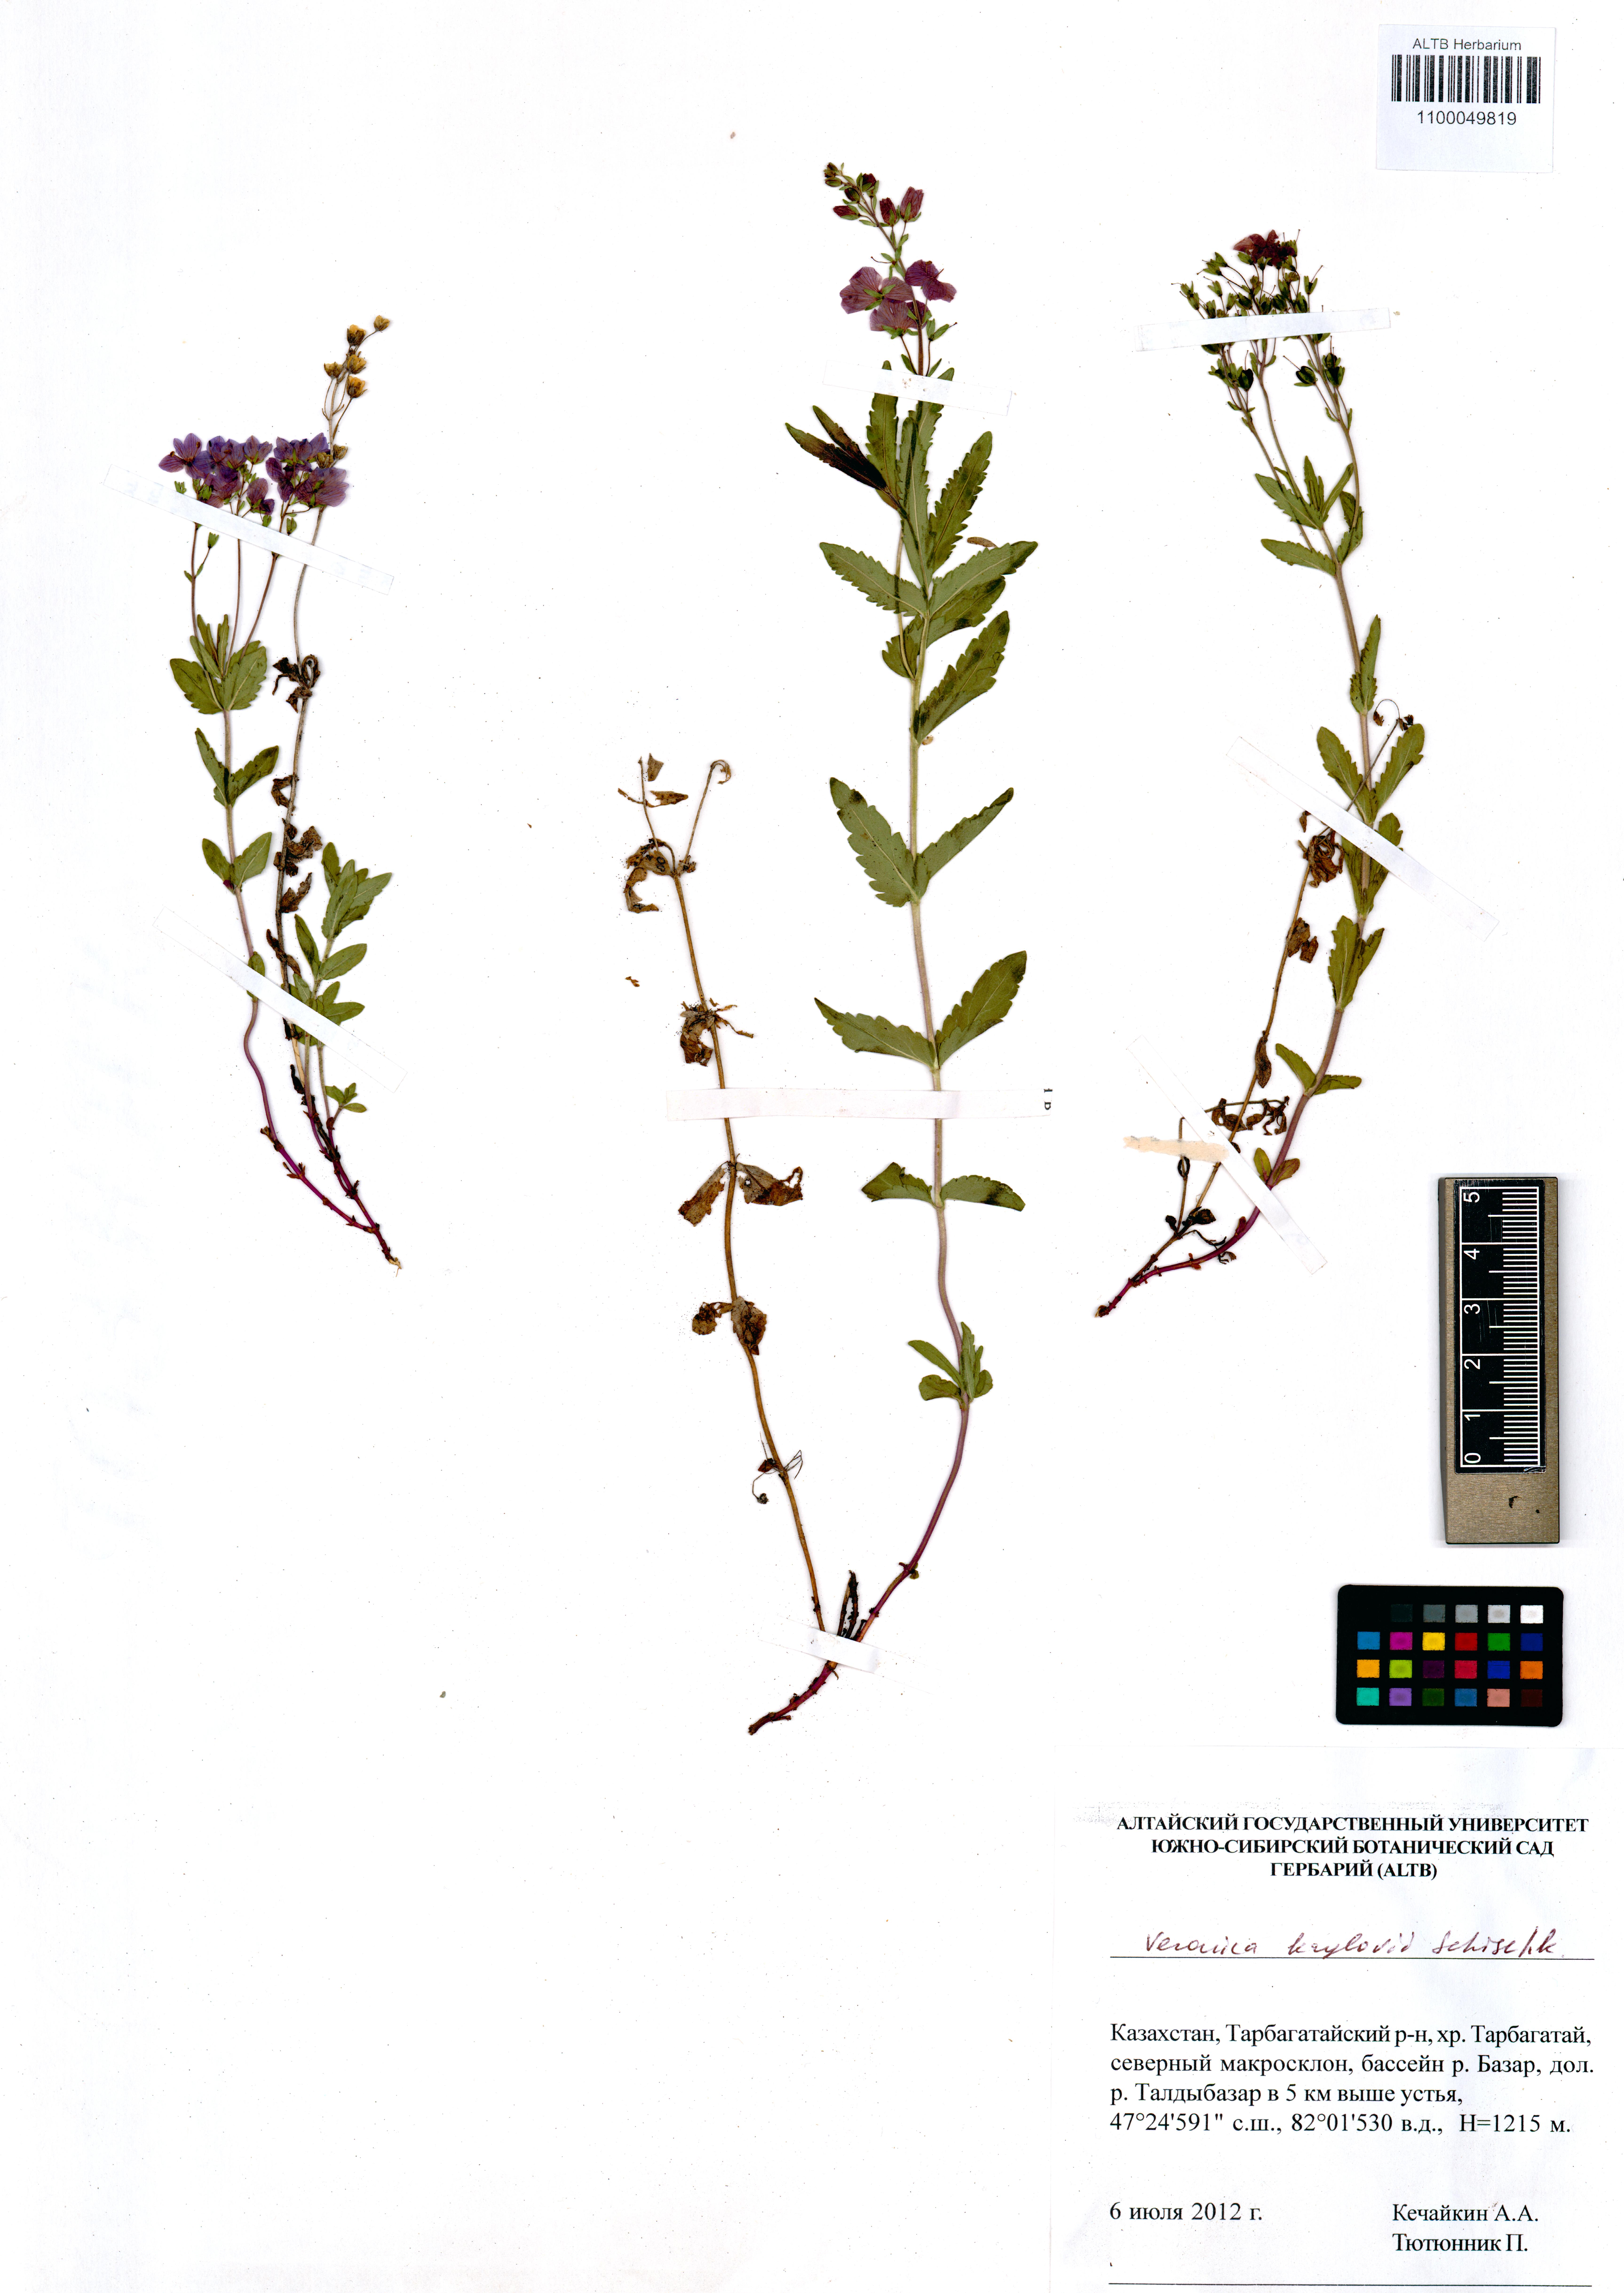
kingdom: Plantae
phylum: Tracheophyta
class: Magnoliopsida
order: Lamiales
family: Plantaginaceae
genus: Veronica
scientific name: Veronica krylovii
